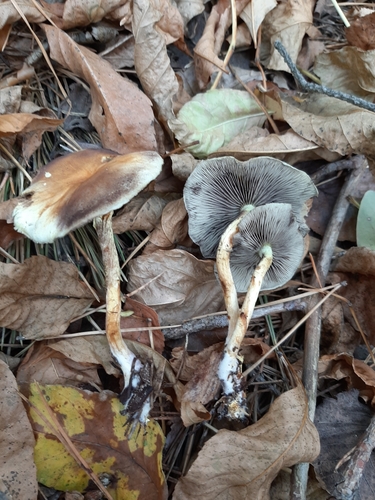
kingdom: Fungi
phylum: Basidiomycota
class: Agaricomycetes
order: Agaricales
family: Strophariaceae
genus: Hypholoma
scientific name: Hypholoma lateritium
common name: Brick caps
